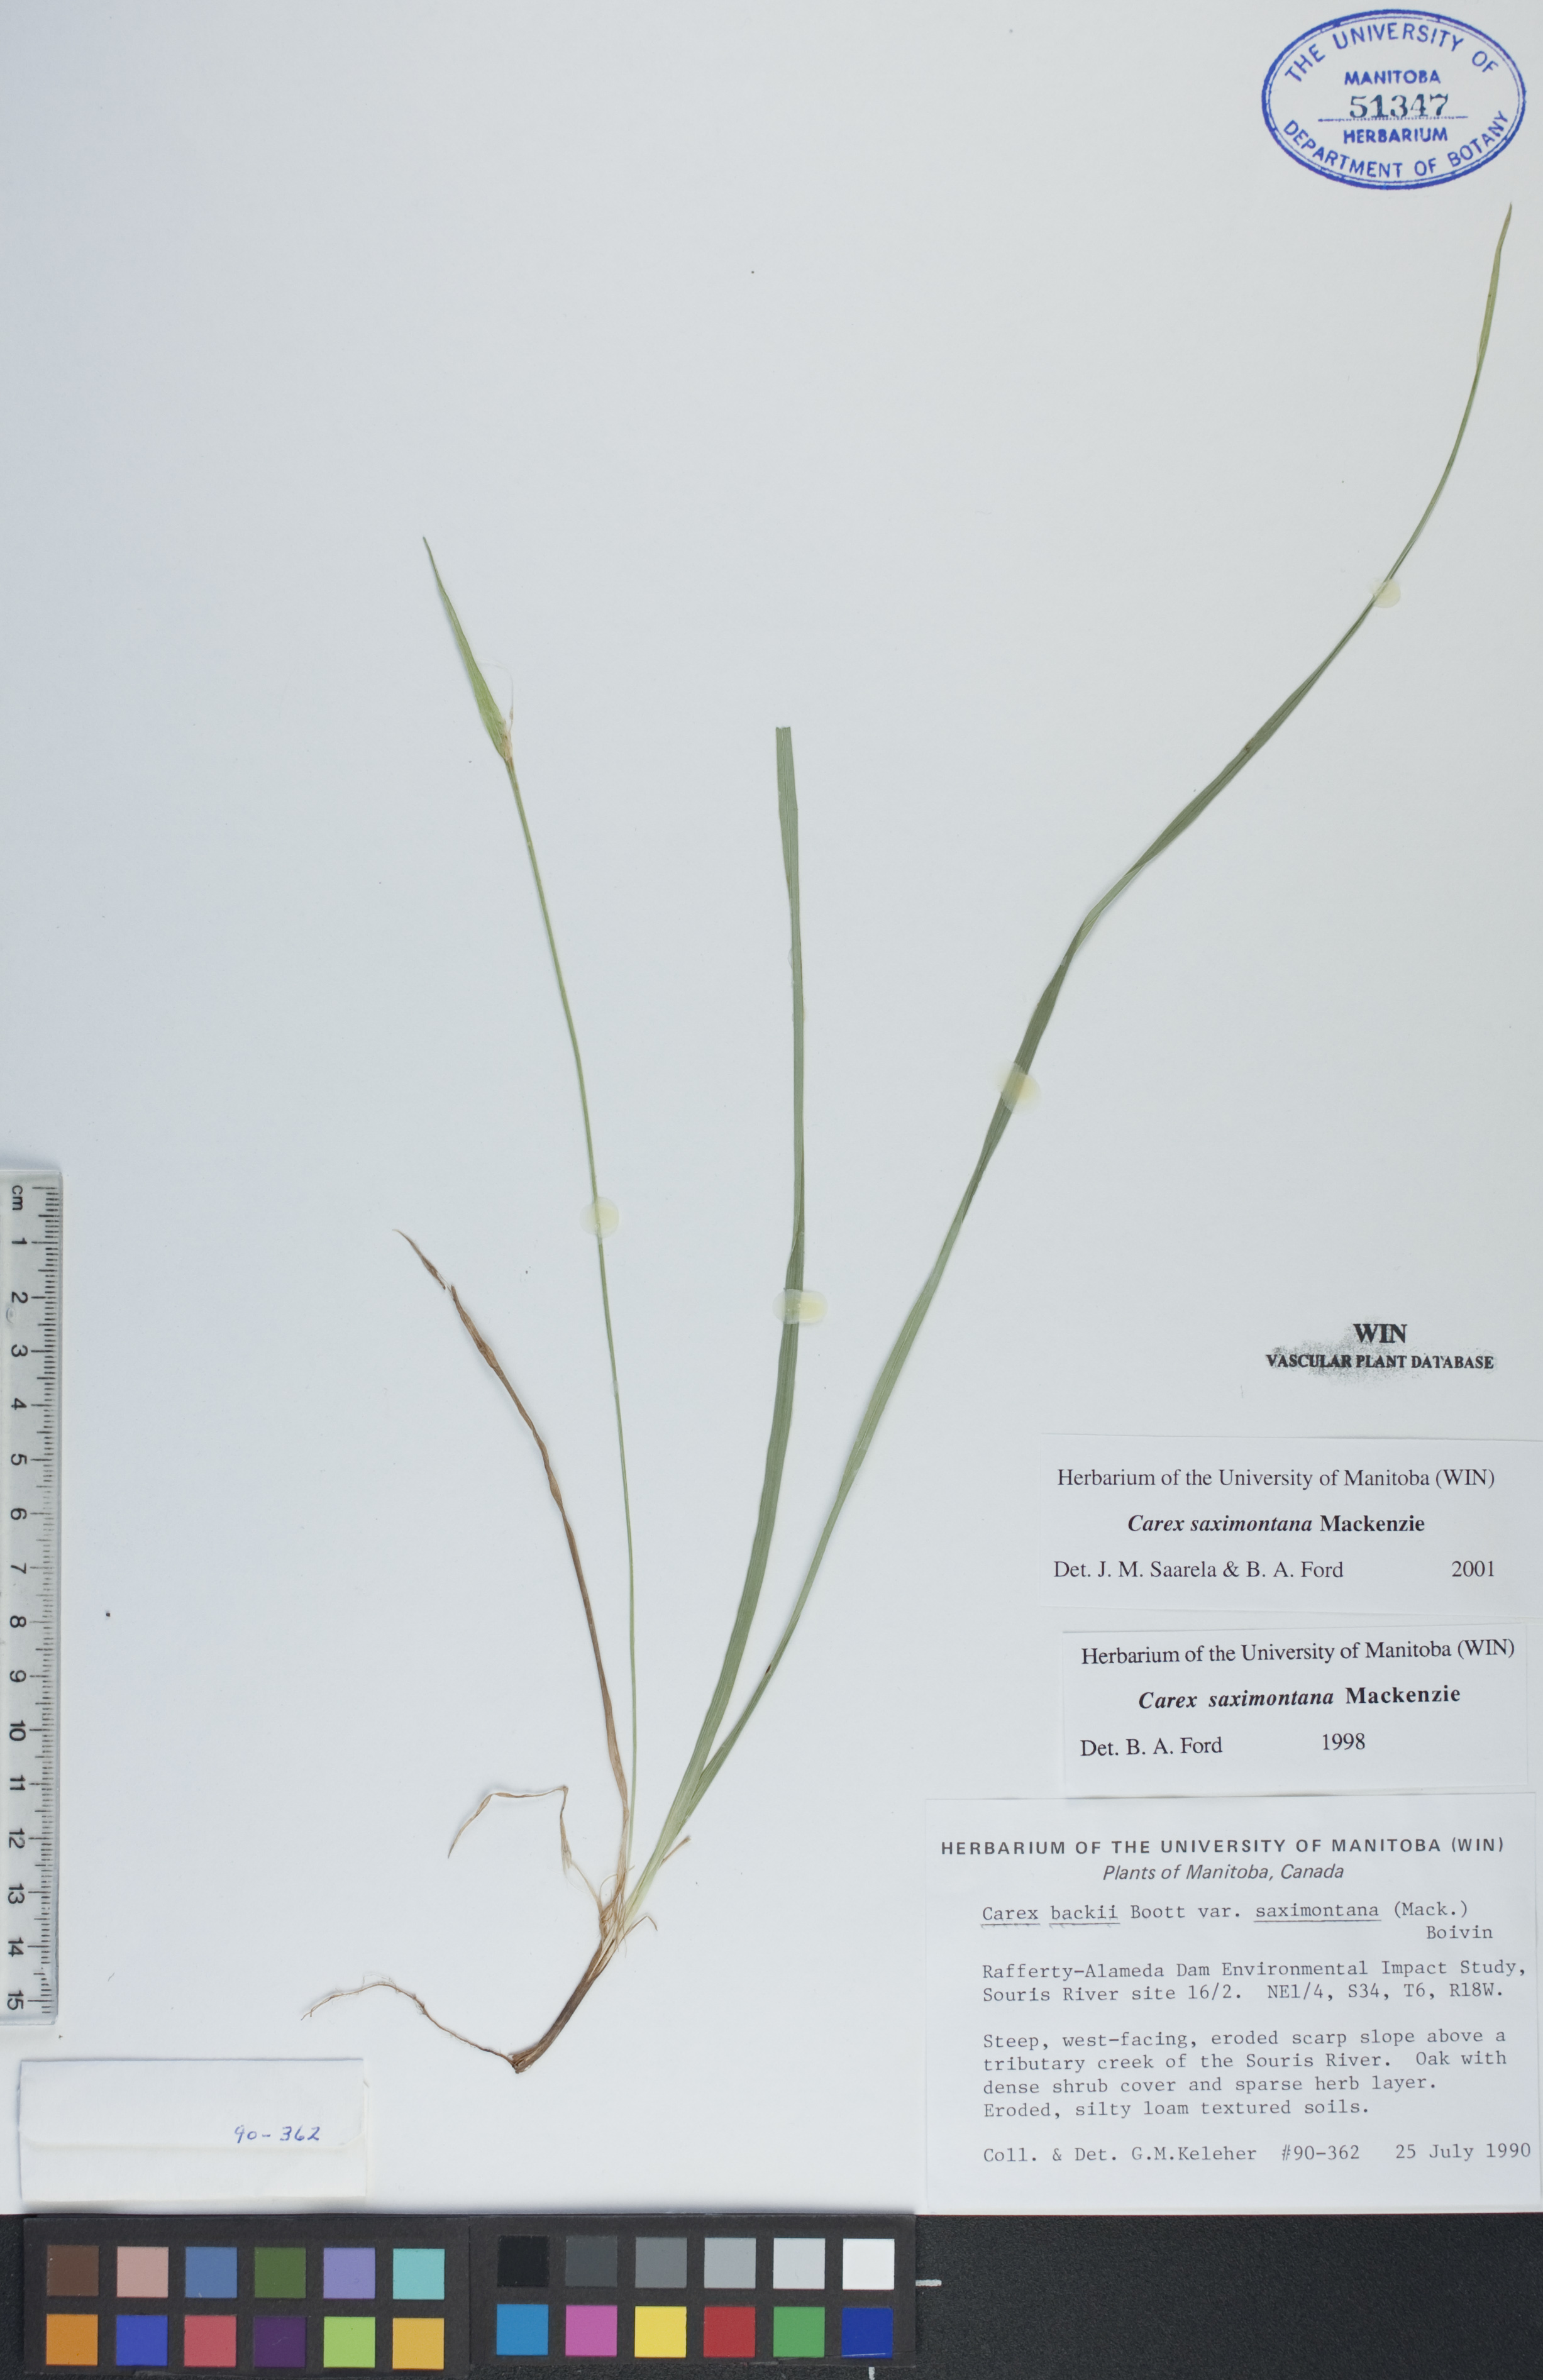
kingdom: Plantae
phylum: Tracheophyta
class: Liliopsida
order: Poales
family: Cyperaceae
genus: Carex
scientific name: Carex saximontana
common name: Rocky mountain sedge
